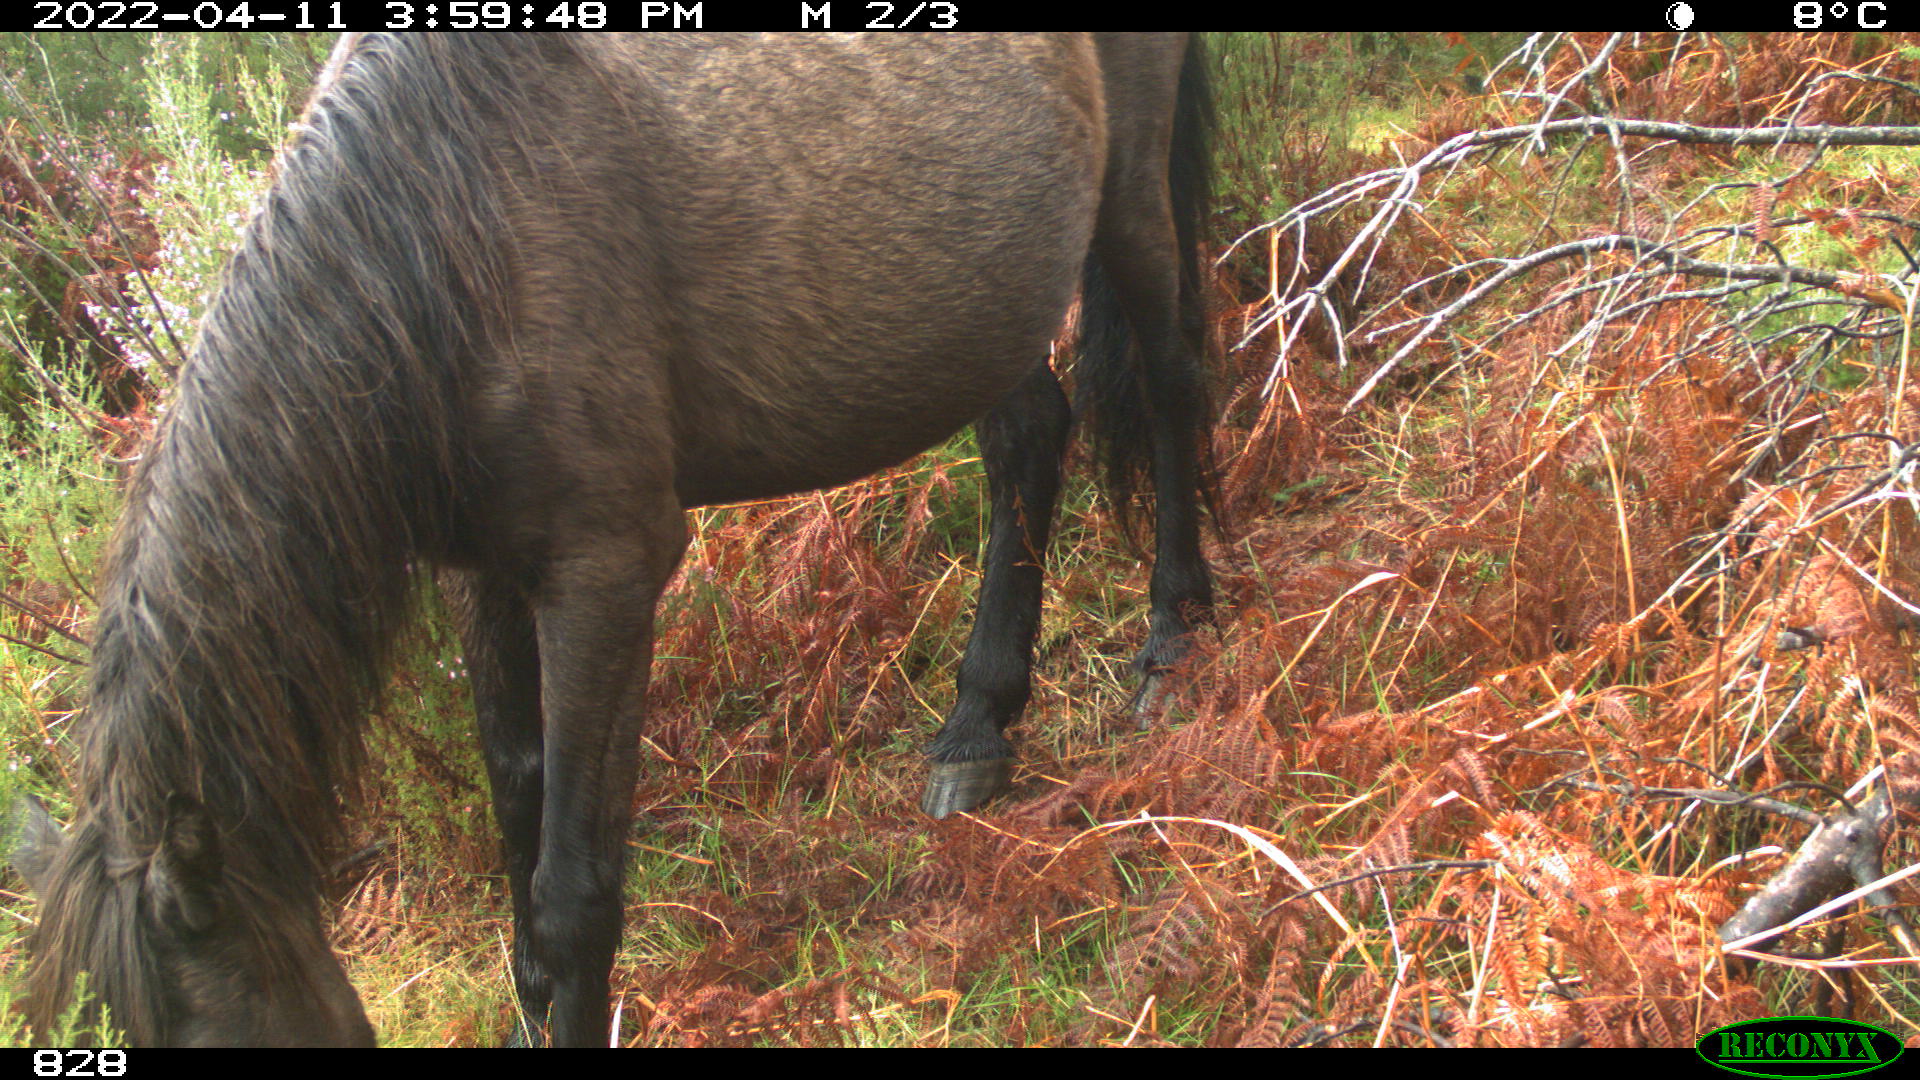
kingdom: Animalia
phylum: Chordata
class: Mammalia
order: Perissodactyla
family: Equidae
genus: Equus
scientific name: Equus caballus
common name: Horse
